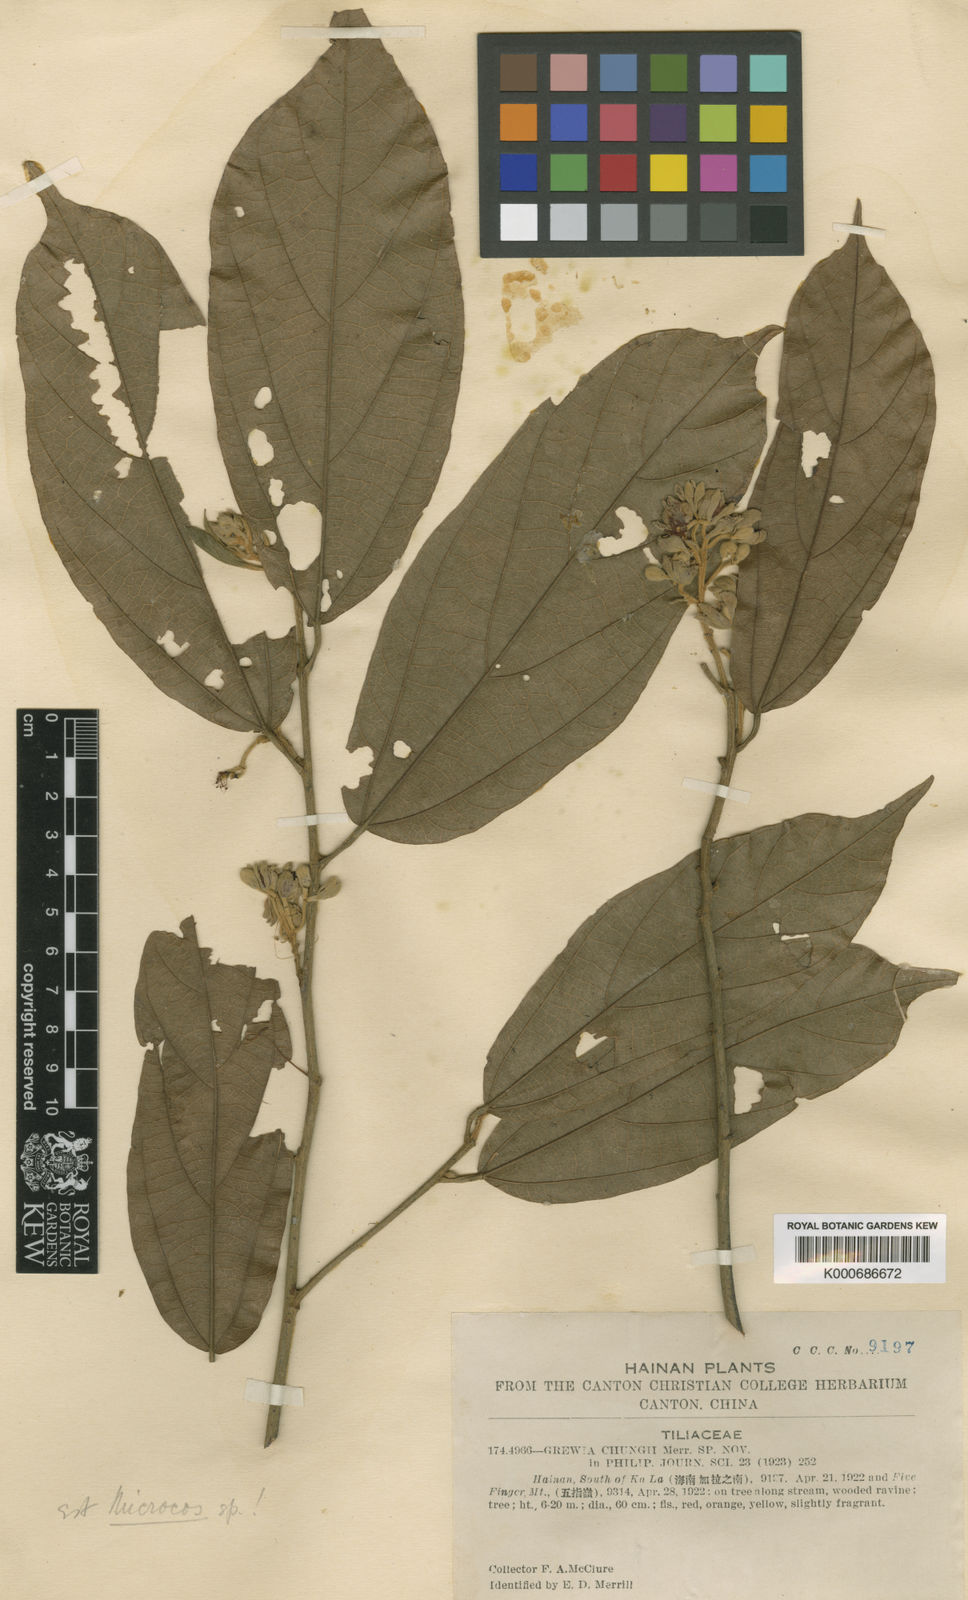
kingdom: Plantae
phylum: Tracheophyta
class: Magnoliopsida
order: Malvales
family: Malvaceae
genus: Microcos
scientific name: Microcos
